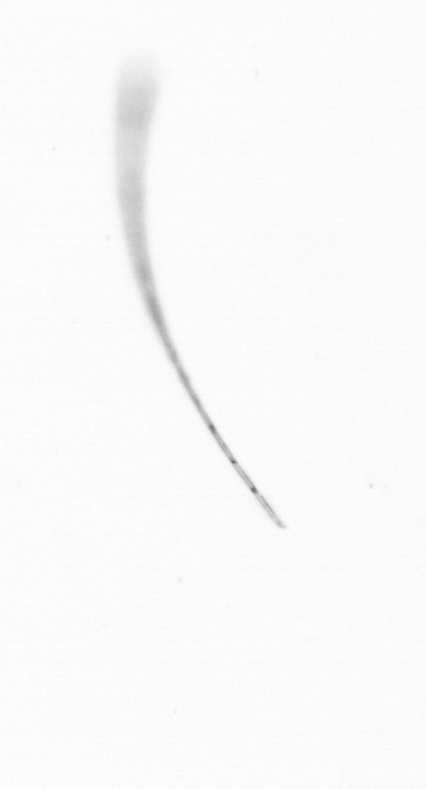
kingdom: Chromista
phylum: Ochrophyta
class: Bacillariophyceae
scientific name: Bacillariophyceae
